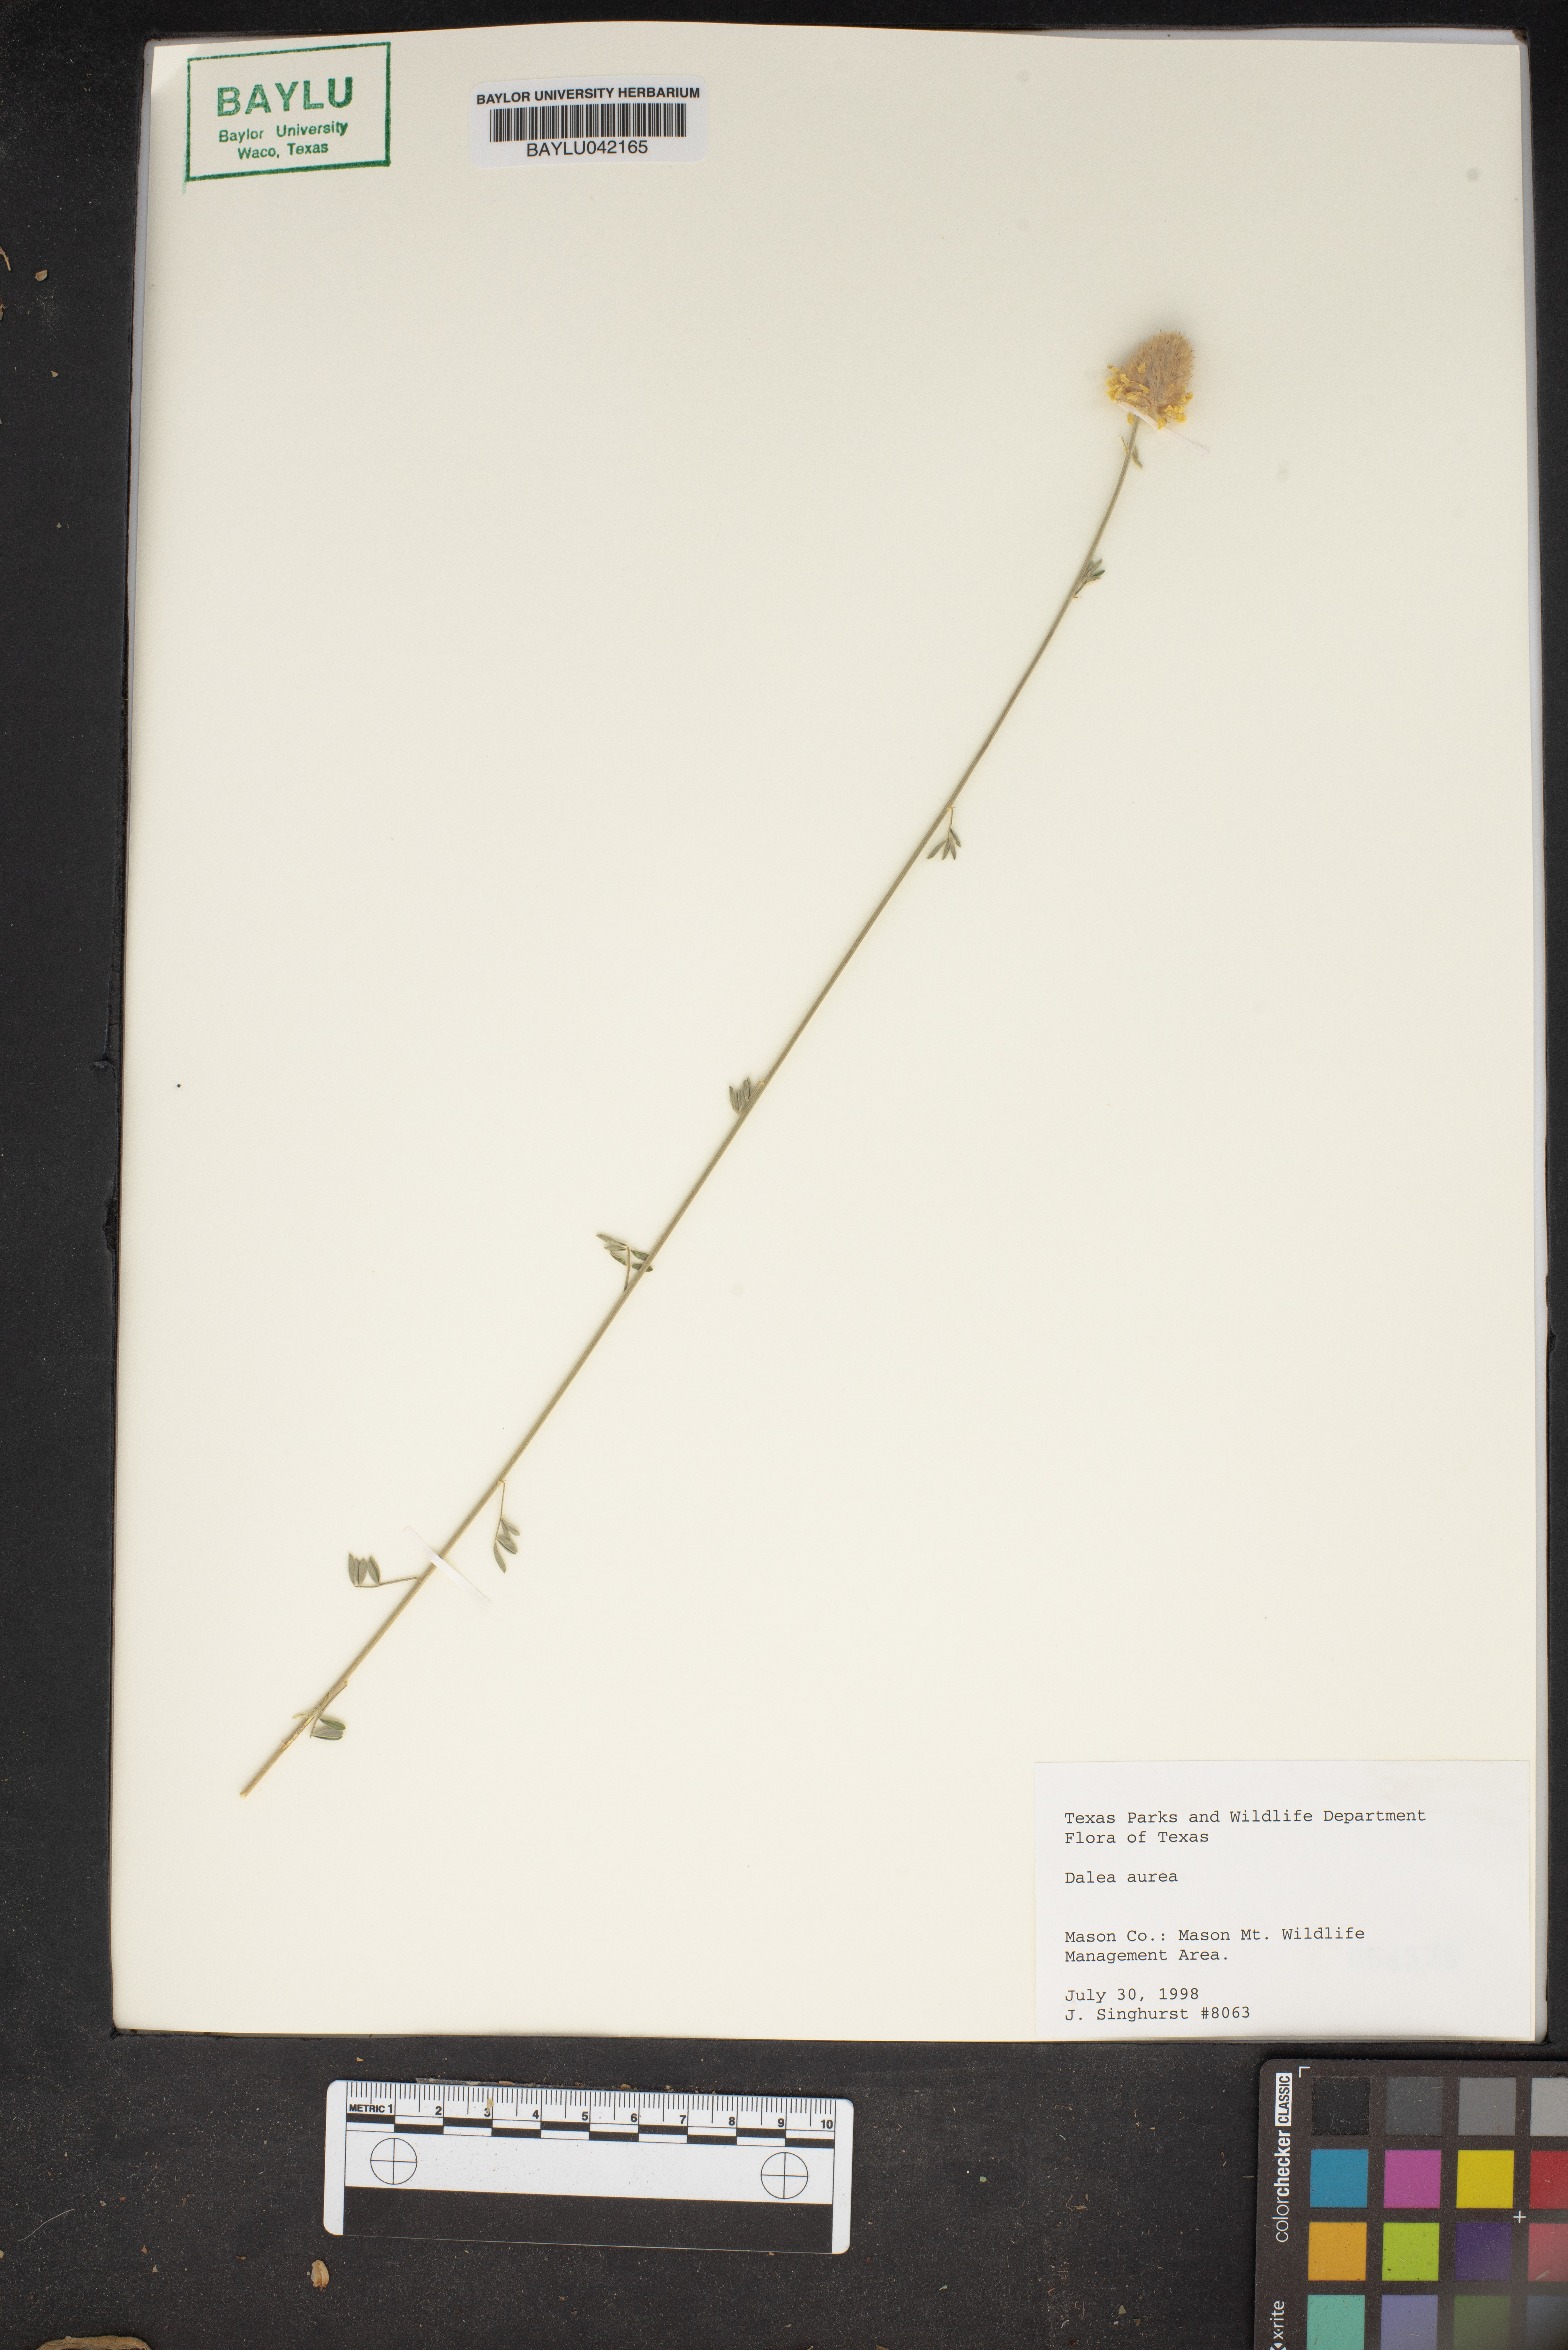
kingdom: Plantae
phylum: Tracheophyta
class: Magnoliopsida
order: Fabales
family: Fabaceae
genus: Dalea
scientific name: Dalea aurea
